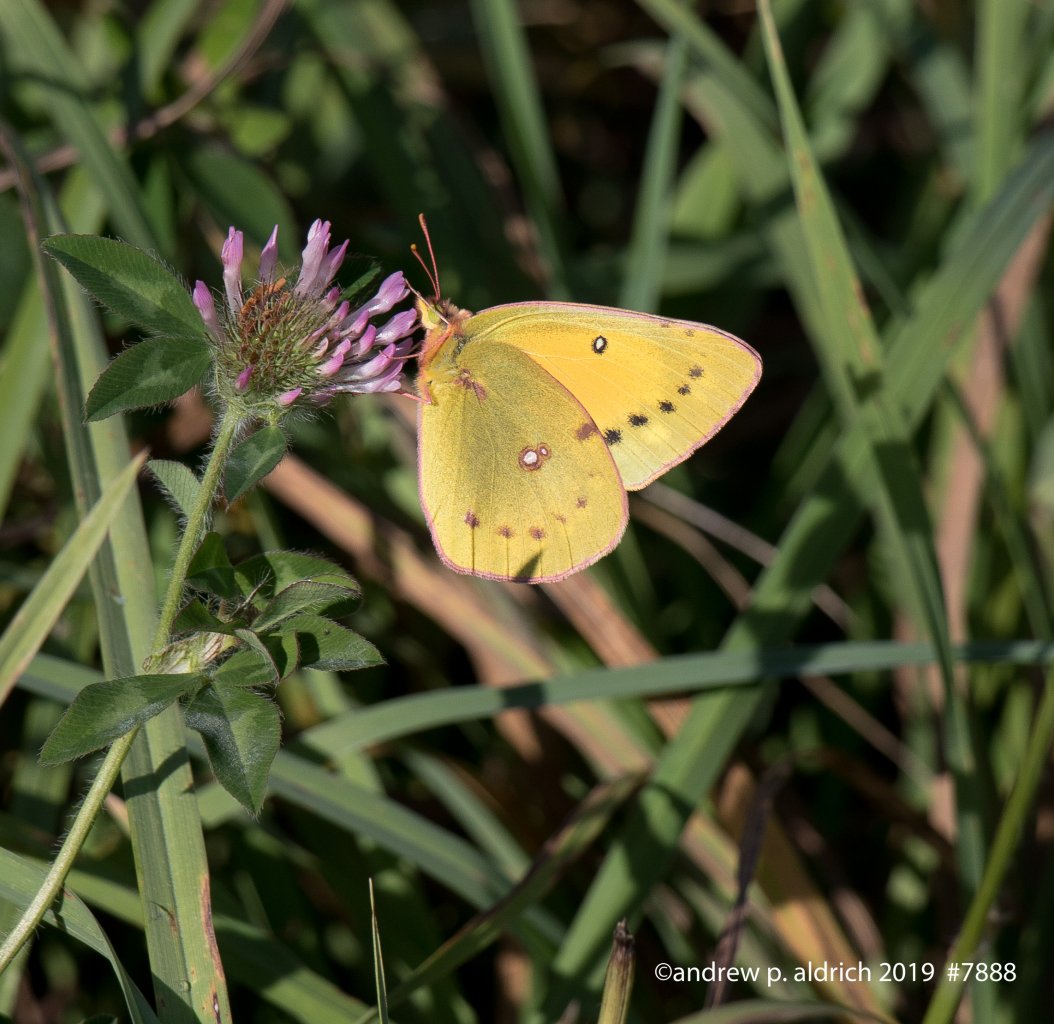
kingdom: Animalia
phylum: Arthropoda
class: Insecta
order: Lepidoptera
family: Pieridae
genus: Colias
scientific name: Colias eurytheme
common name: Orange Sulphur
